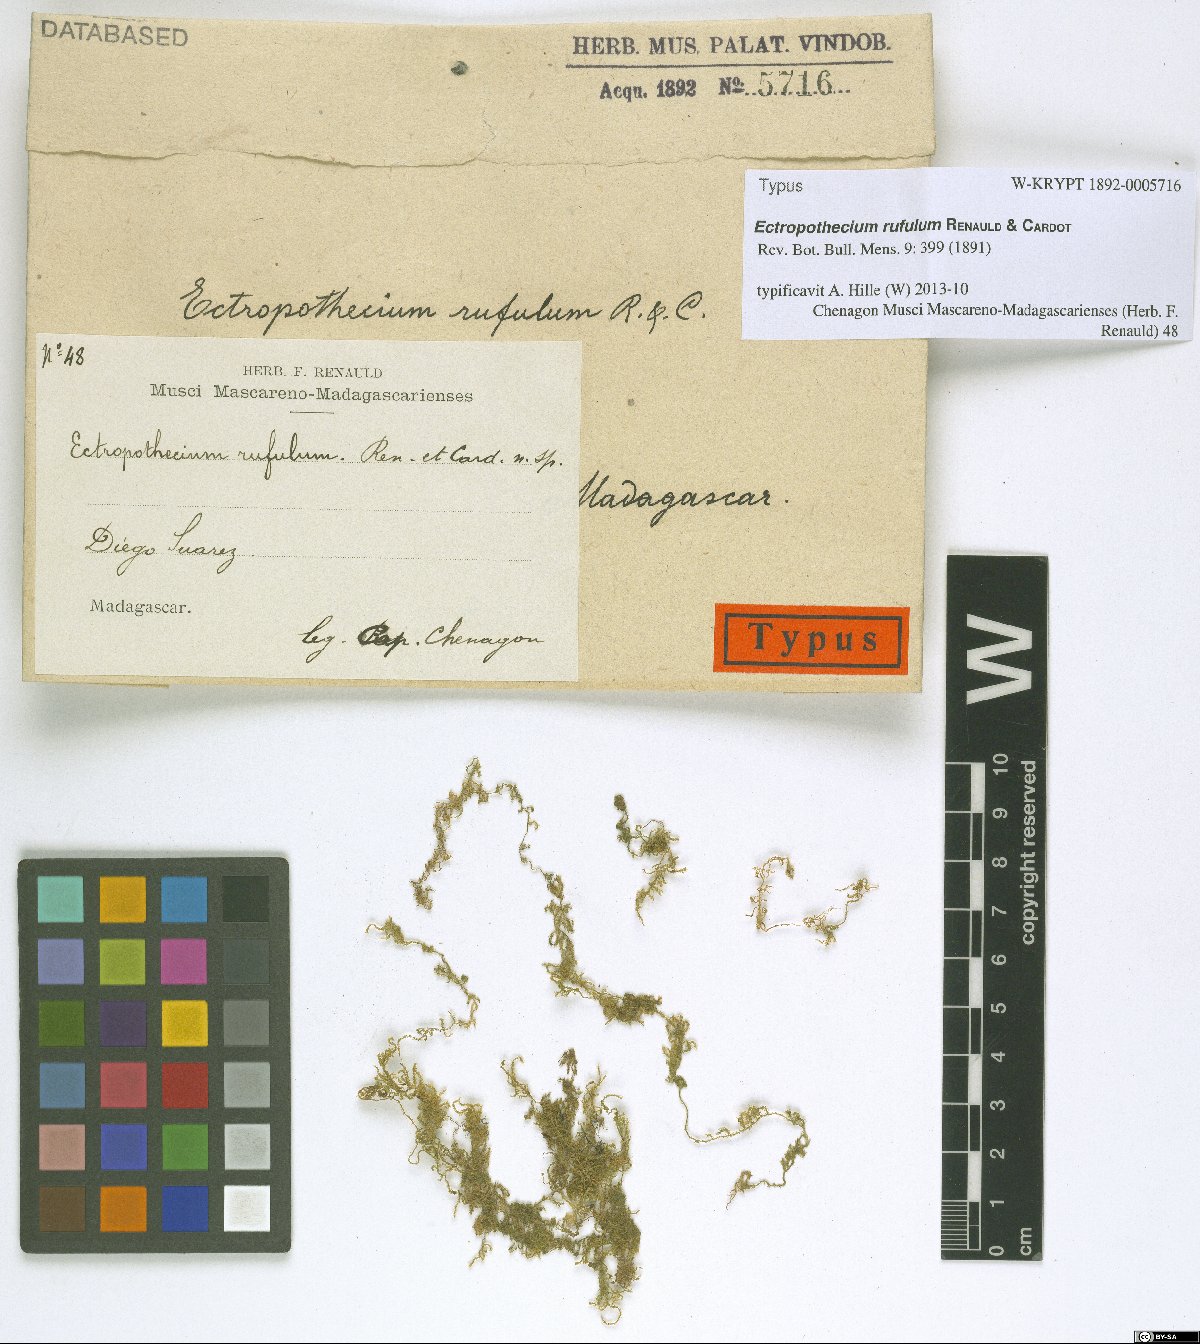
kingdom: Plantae
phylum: Bryophyta
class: Bryopsida
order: Hypnales
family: Hypnaceae
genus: Vesicularia
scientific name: Vesicularia alboviridis
